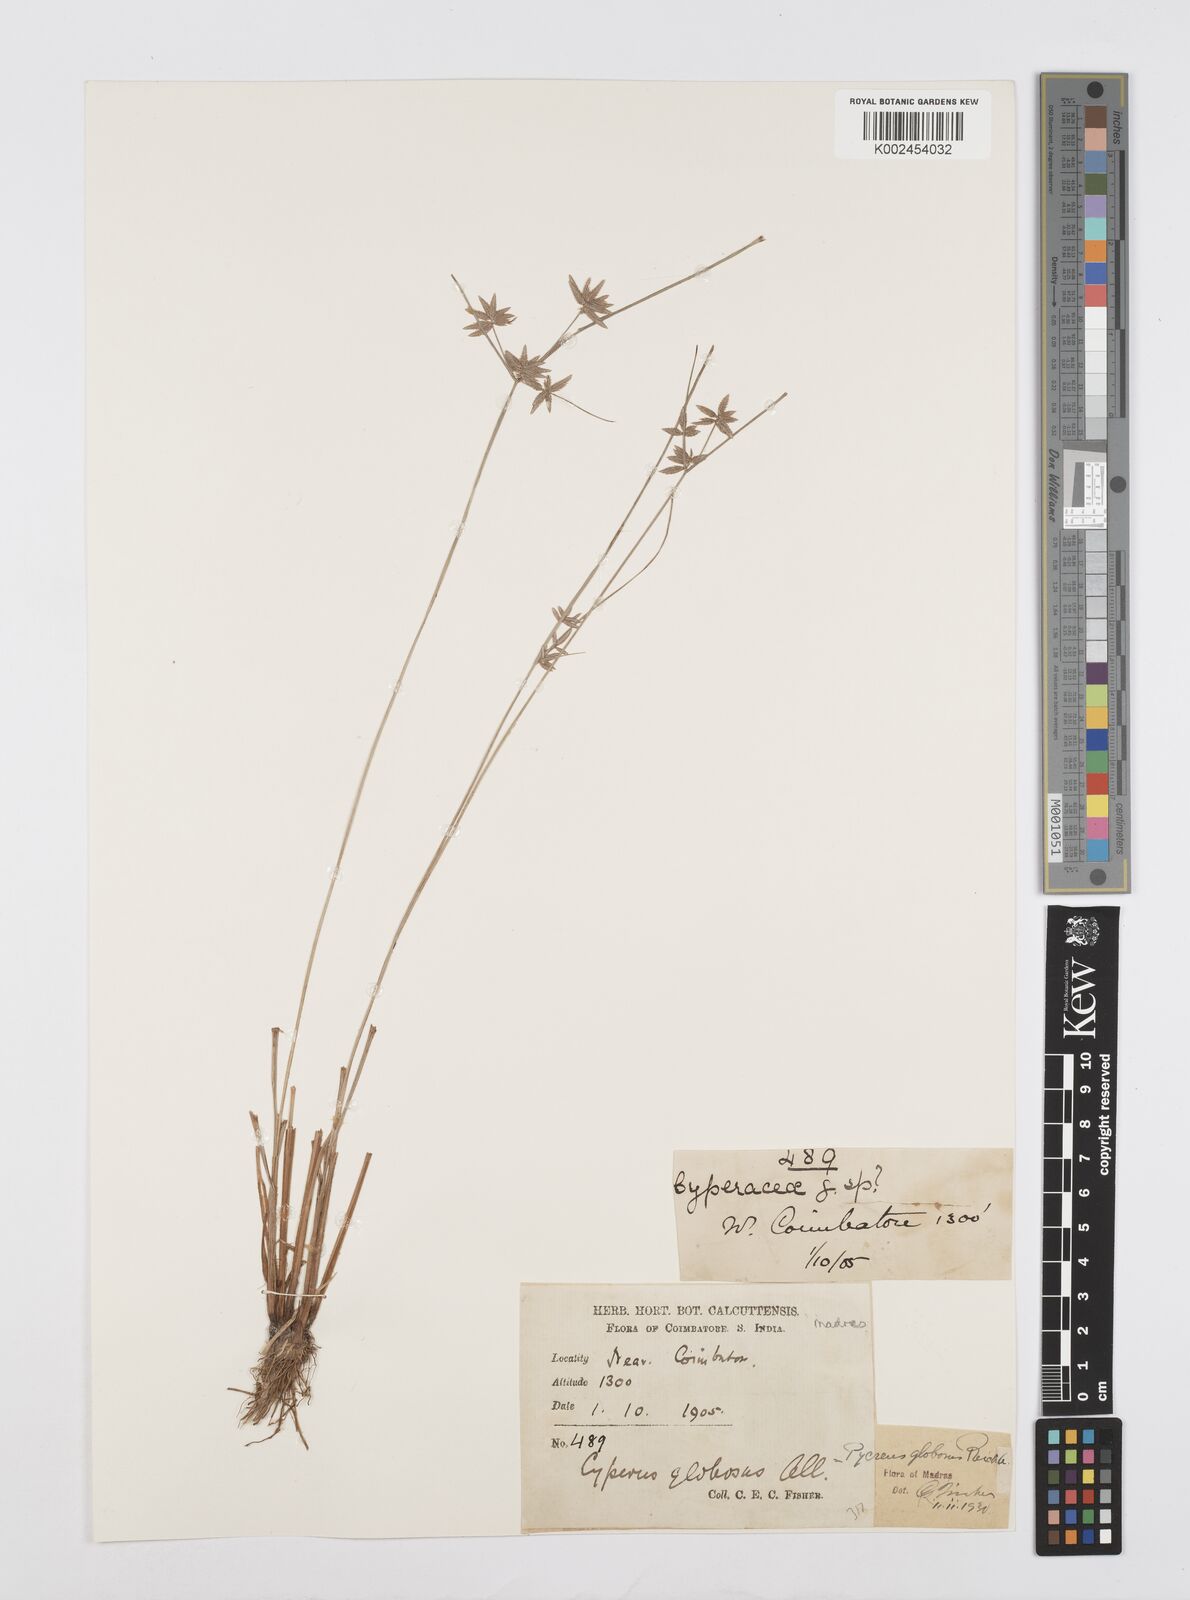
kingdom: Plantae
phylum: Tracheophyta
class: Liliopsida
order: Poales
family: Cyperaceae
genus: Cyperus
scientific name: Cyperus flavidus
